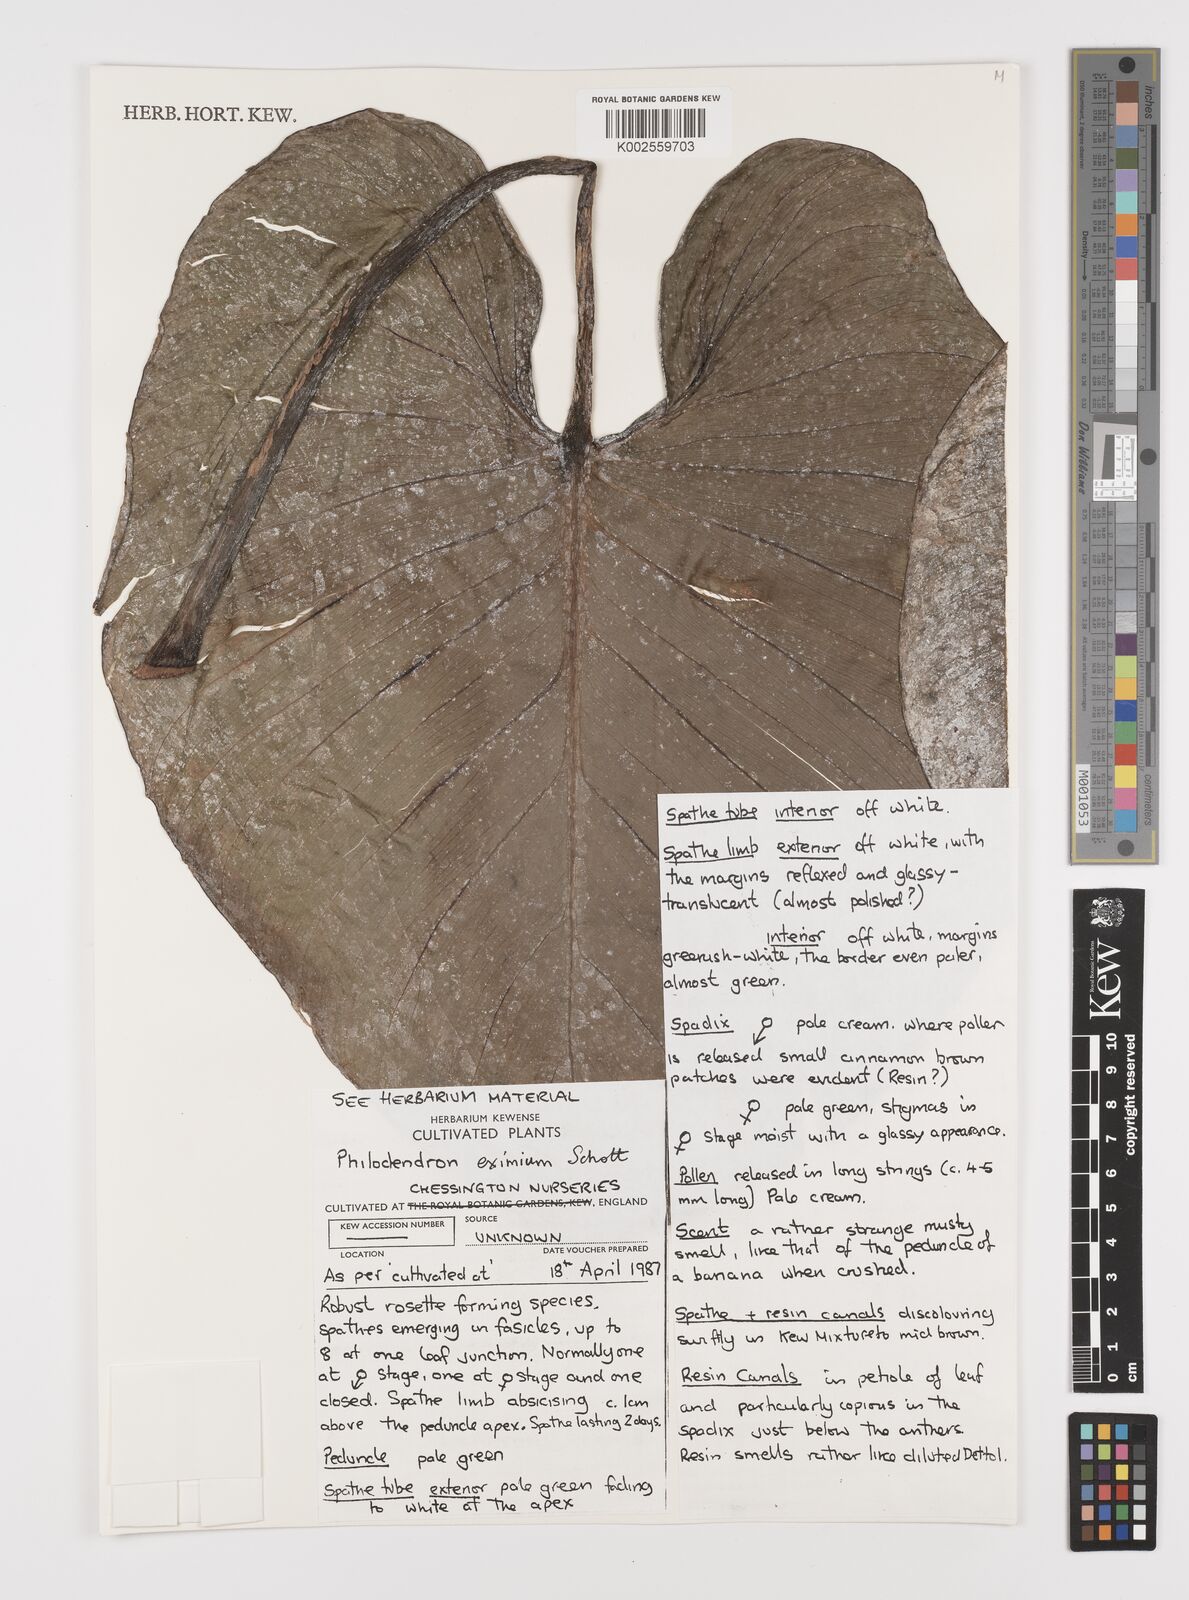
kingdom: Plantae
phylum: Tracheophyta
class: Liliopsida
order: Alismatales
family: Araceae
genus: Philodendron
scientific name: Philodendron eximium
